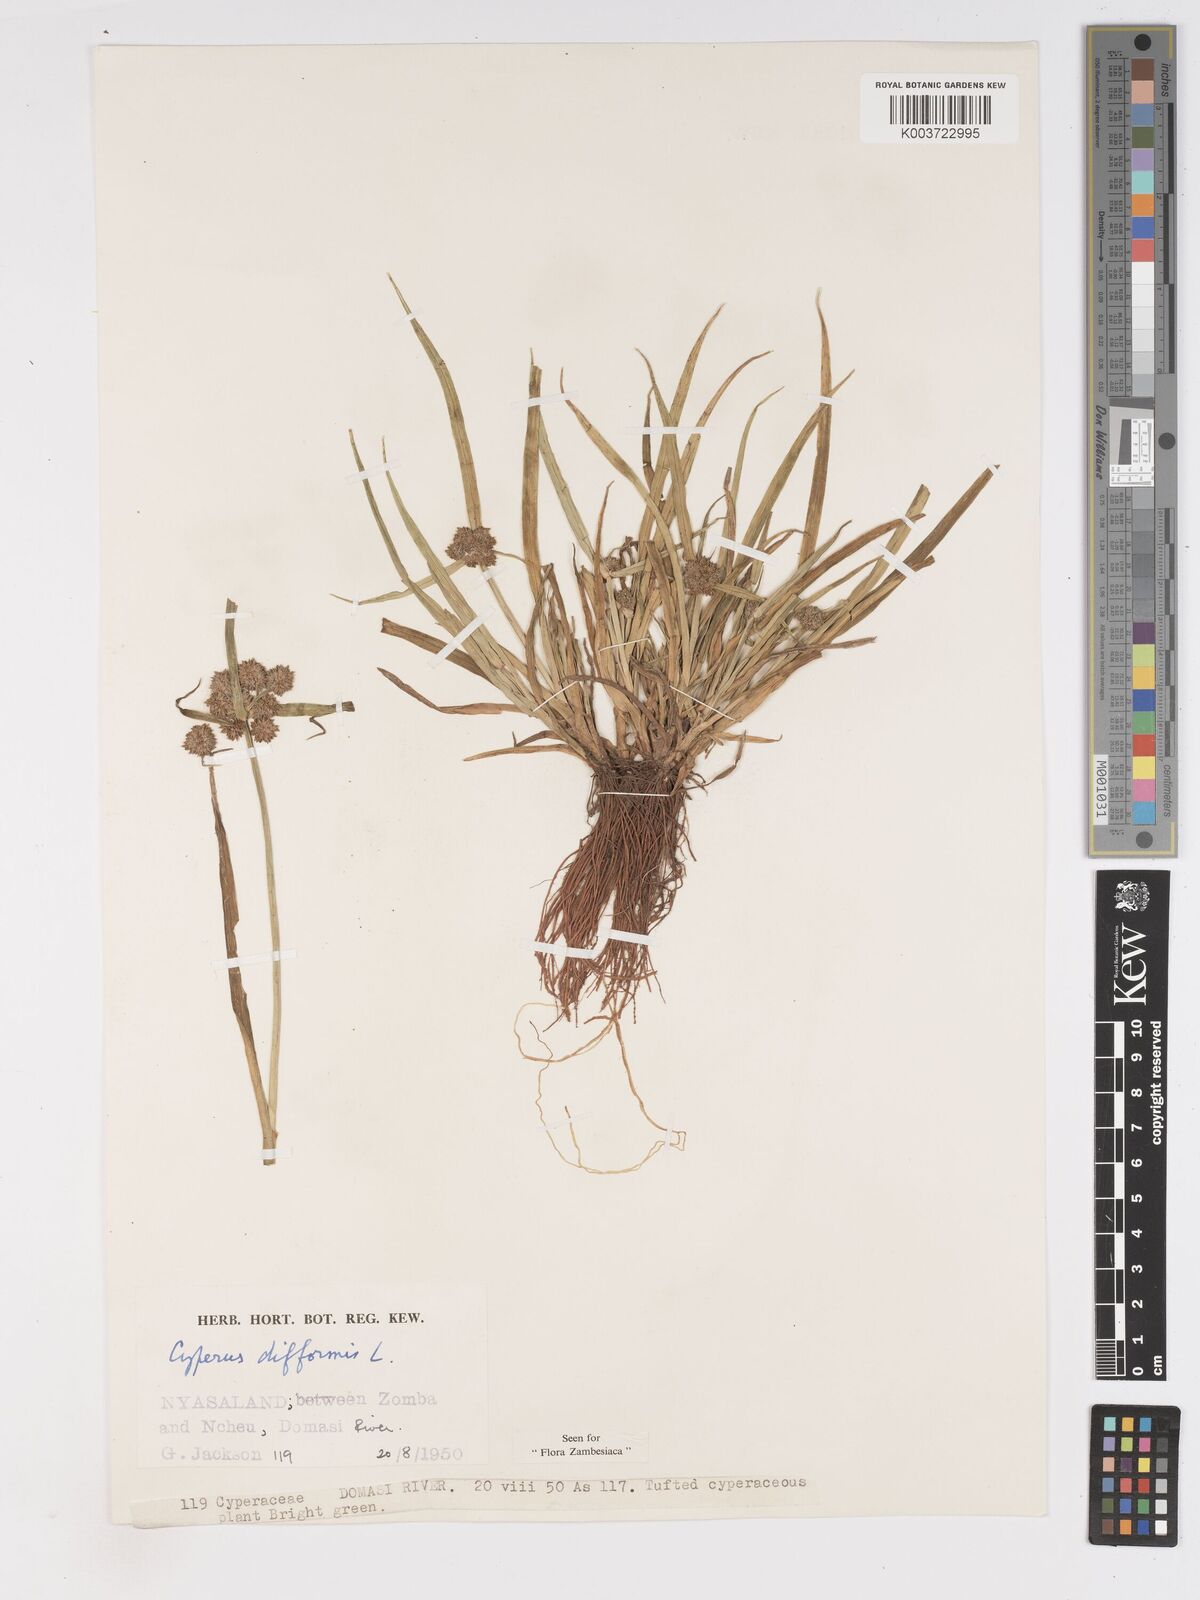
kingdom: Plantae
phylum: Tracheophyta
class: Liliopsida
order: Poales
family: Cyperaceae
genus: Cyperus
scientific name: Cyperus difformis
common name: Variable flatsedge
